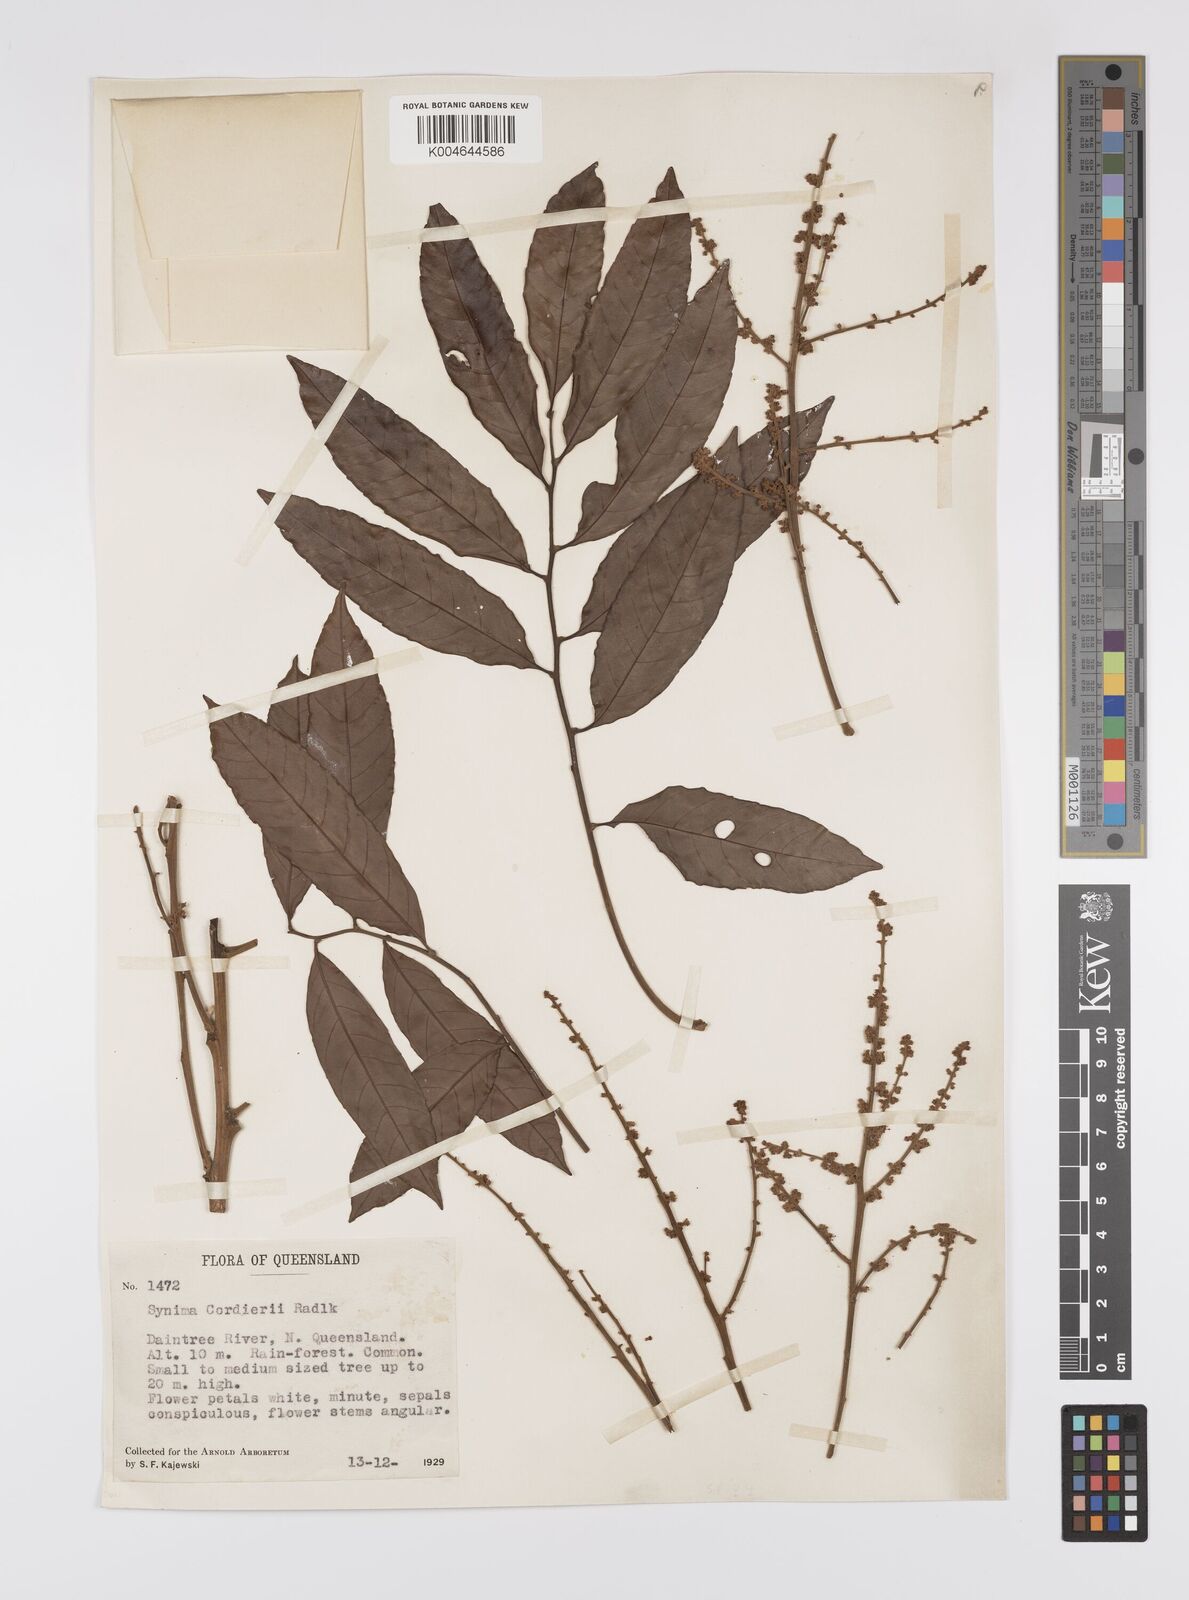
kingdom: Plantae
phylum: Tracheophyta
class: Magnoliopsida
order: Sapindales
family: Sapindaceae
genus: Synima
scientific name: Synima
